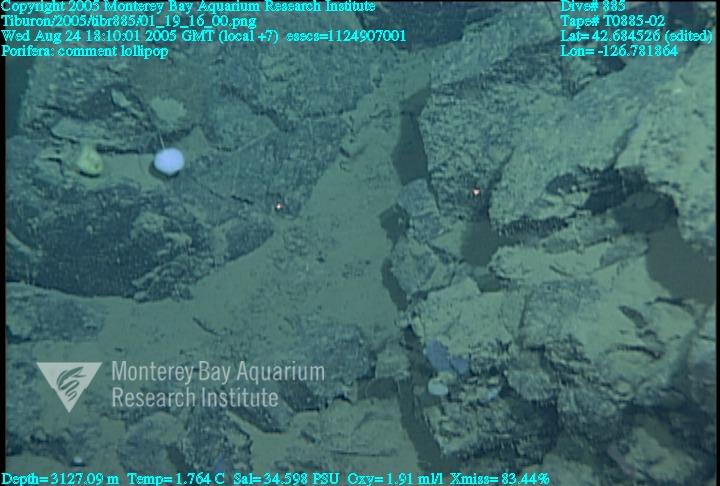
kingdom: Animalia
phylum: Porifera
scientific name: Porifera
